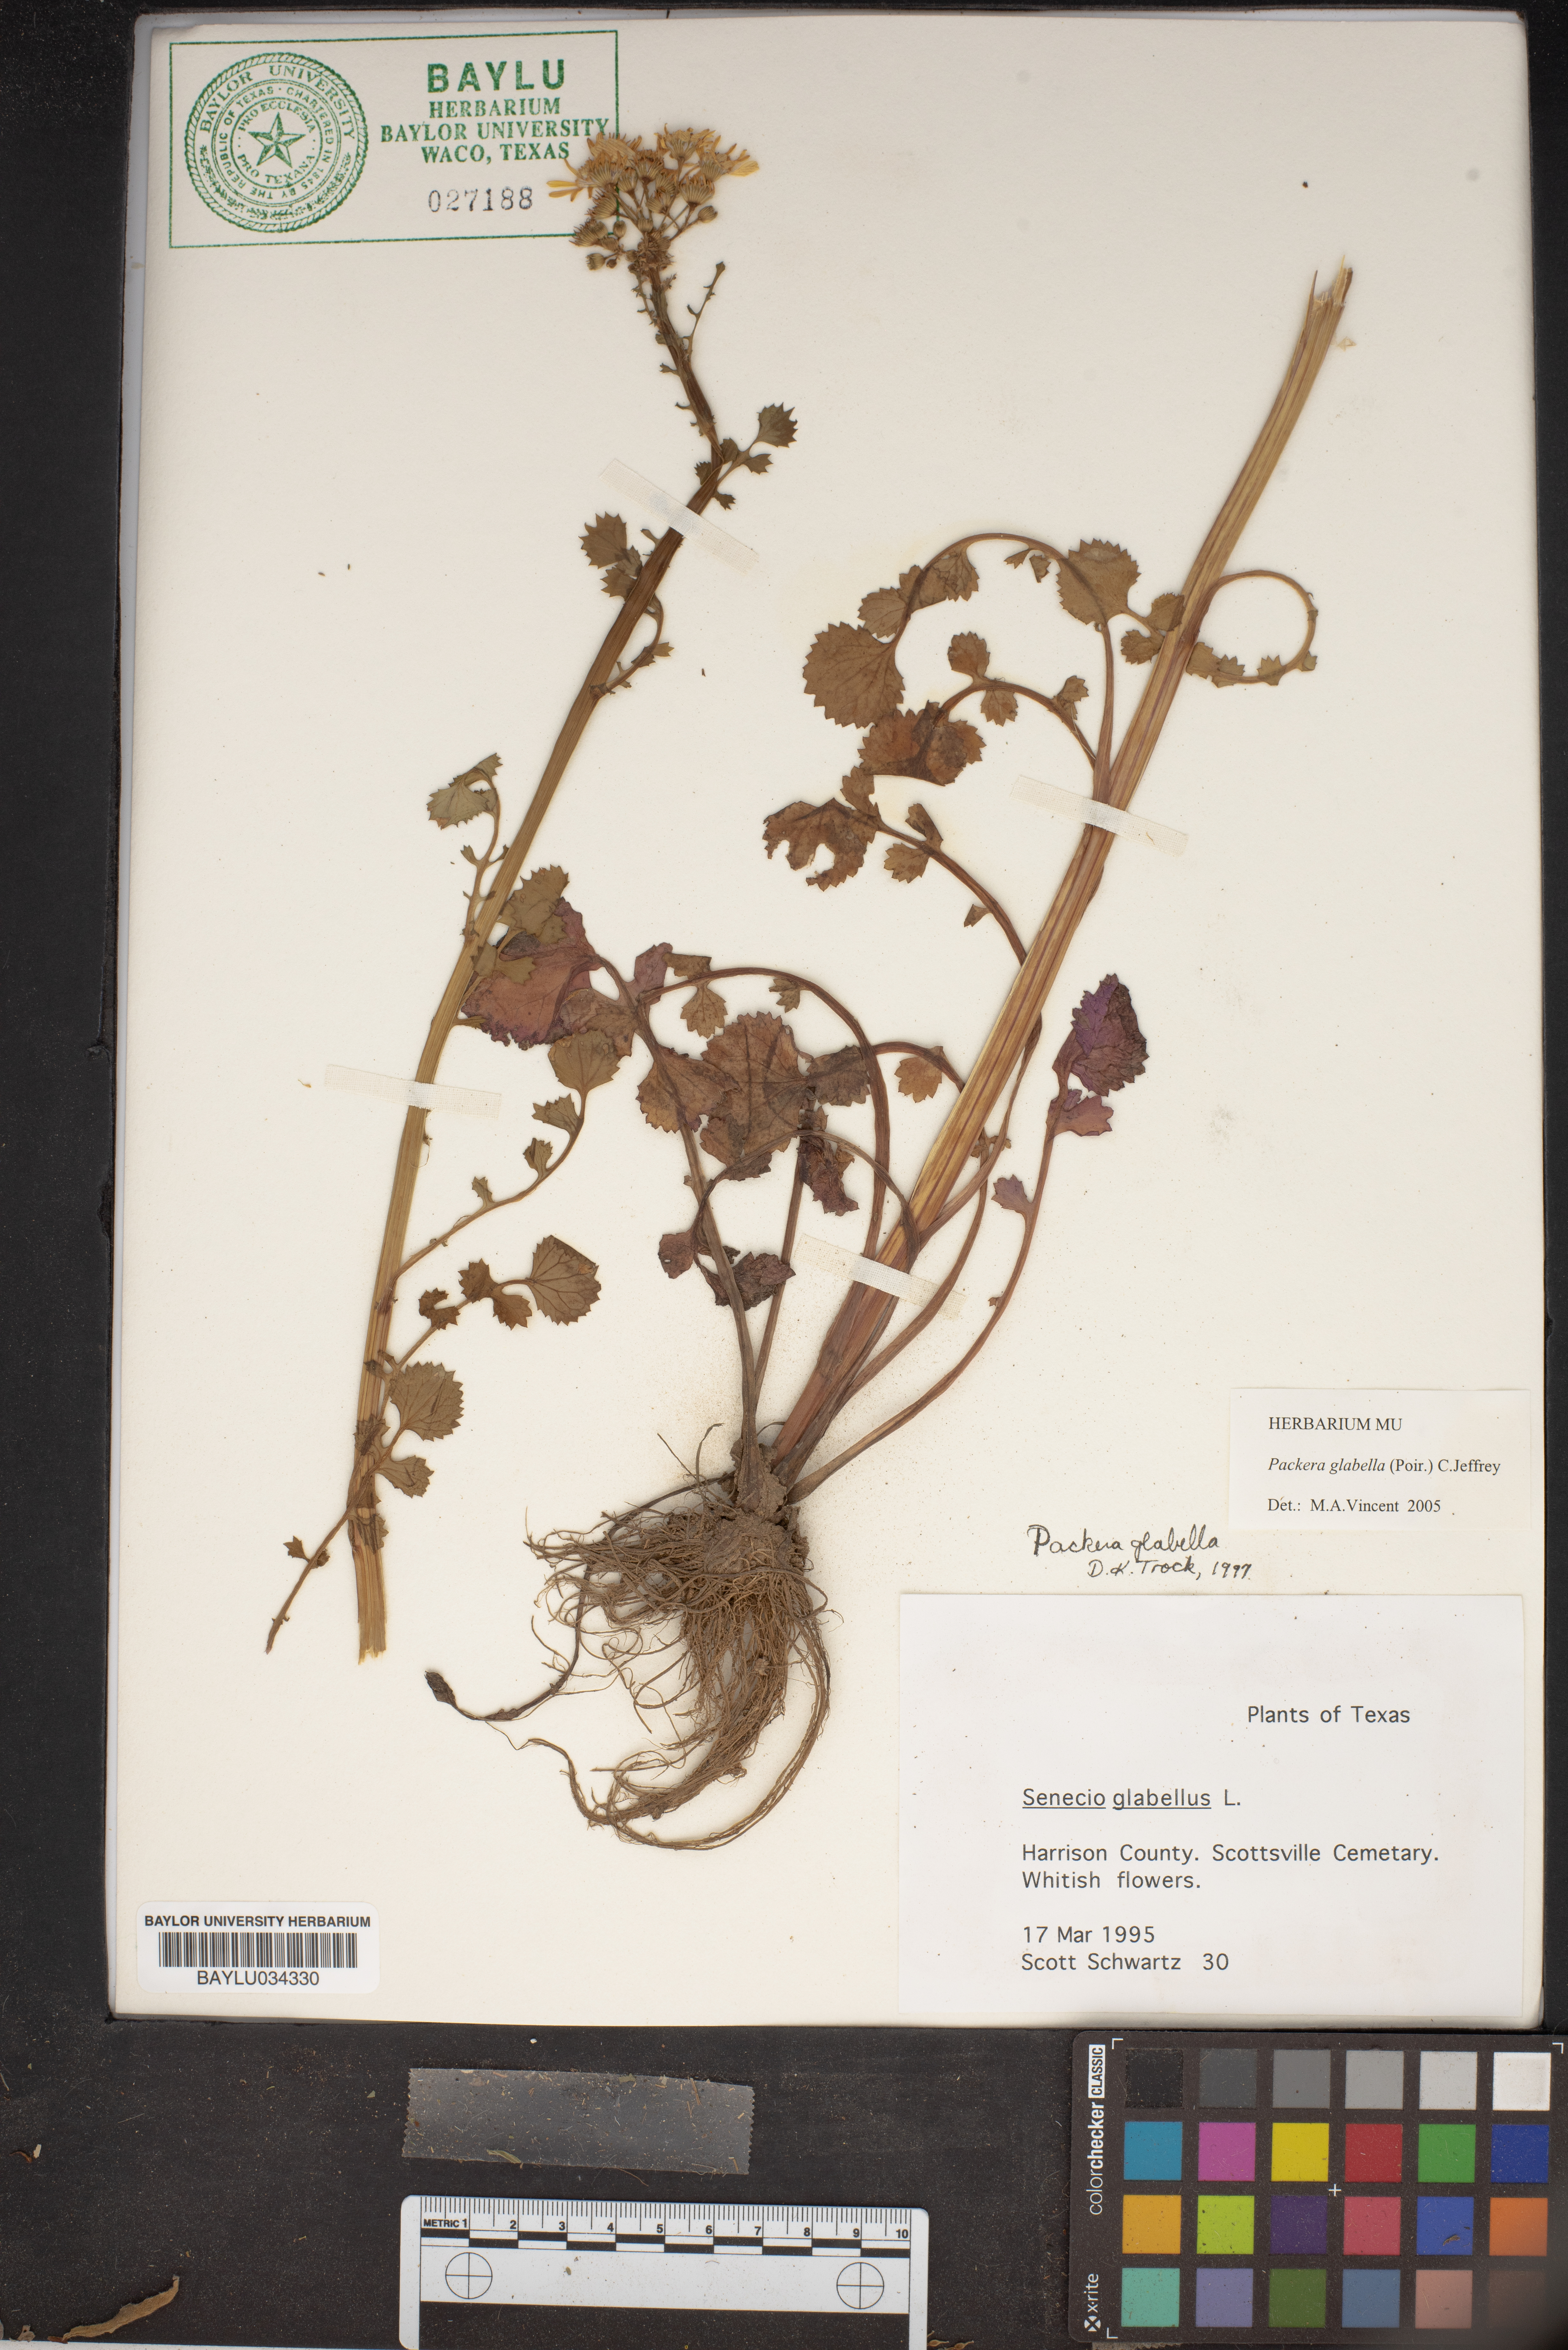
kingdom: Plantae
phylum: Tracheophyta
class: Magnoliopsida
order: Asterales
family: Asteraceae
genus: Tephroseris
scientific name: Tephroseris praticola
